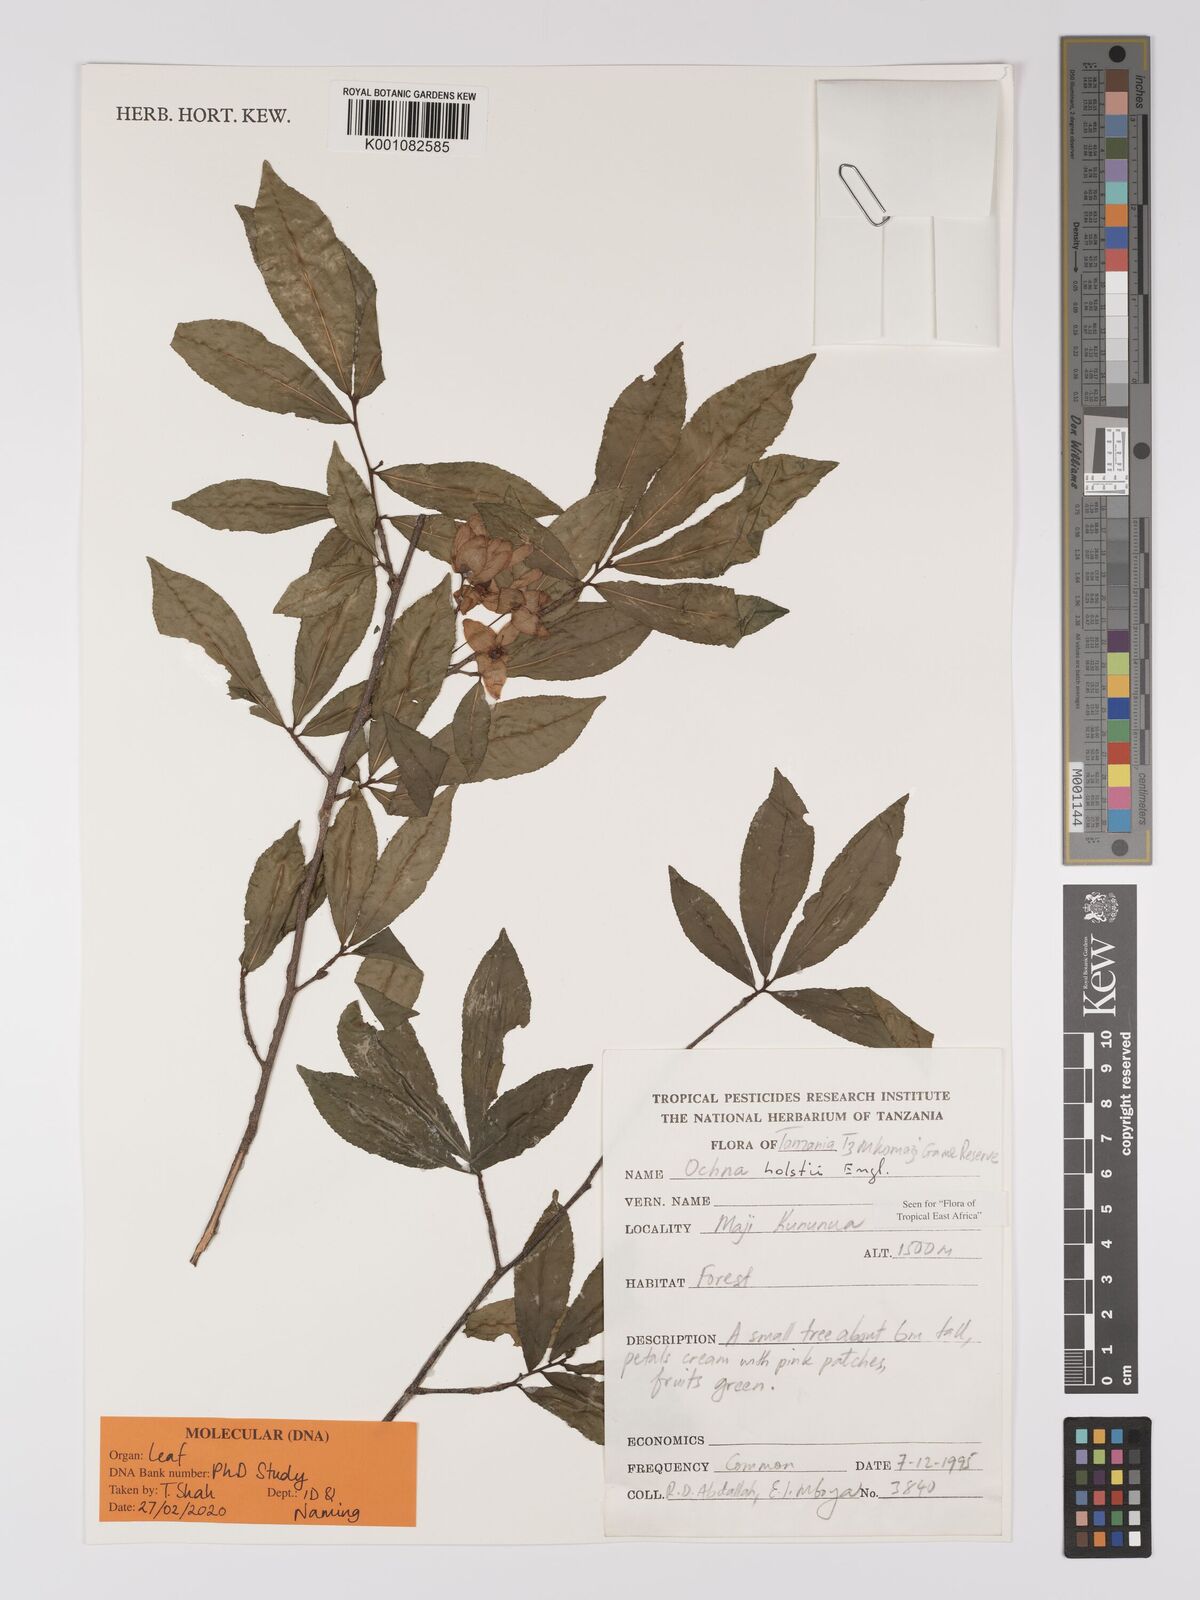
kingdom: Plantae
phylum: Tracheophyta
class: Magnoliopsida
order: Malpighiales
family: Ochnaceae
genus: Ochna
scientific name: Ochna holstii
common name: Red ironwood
